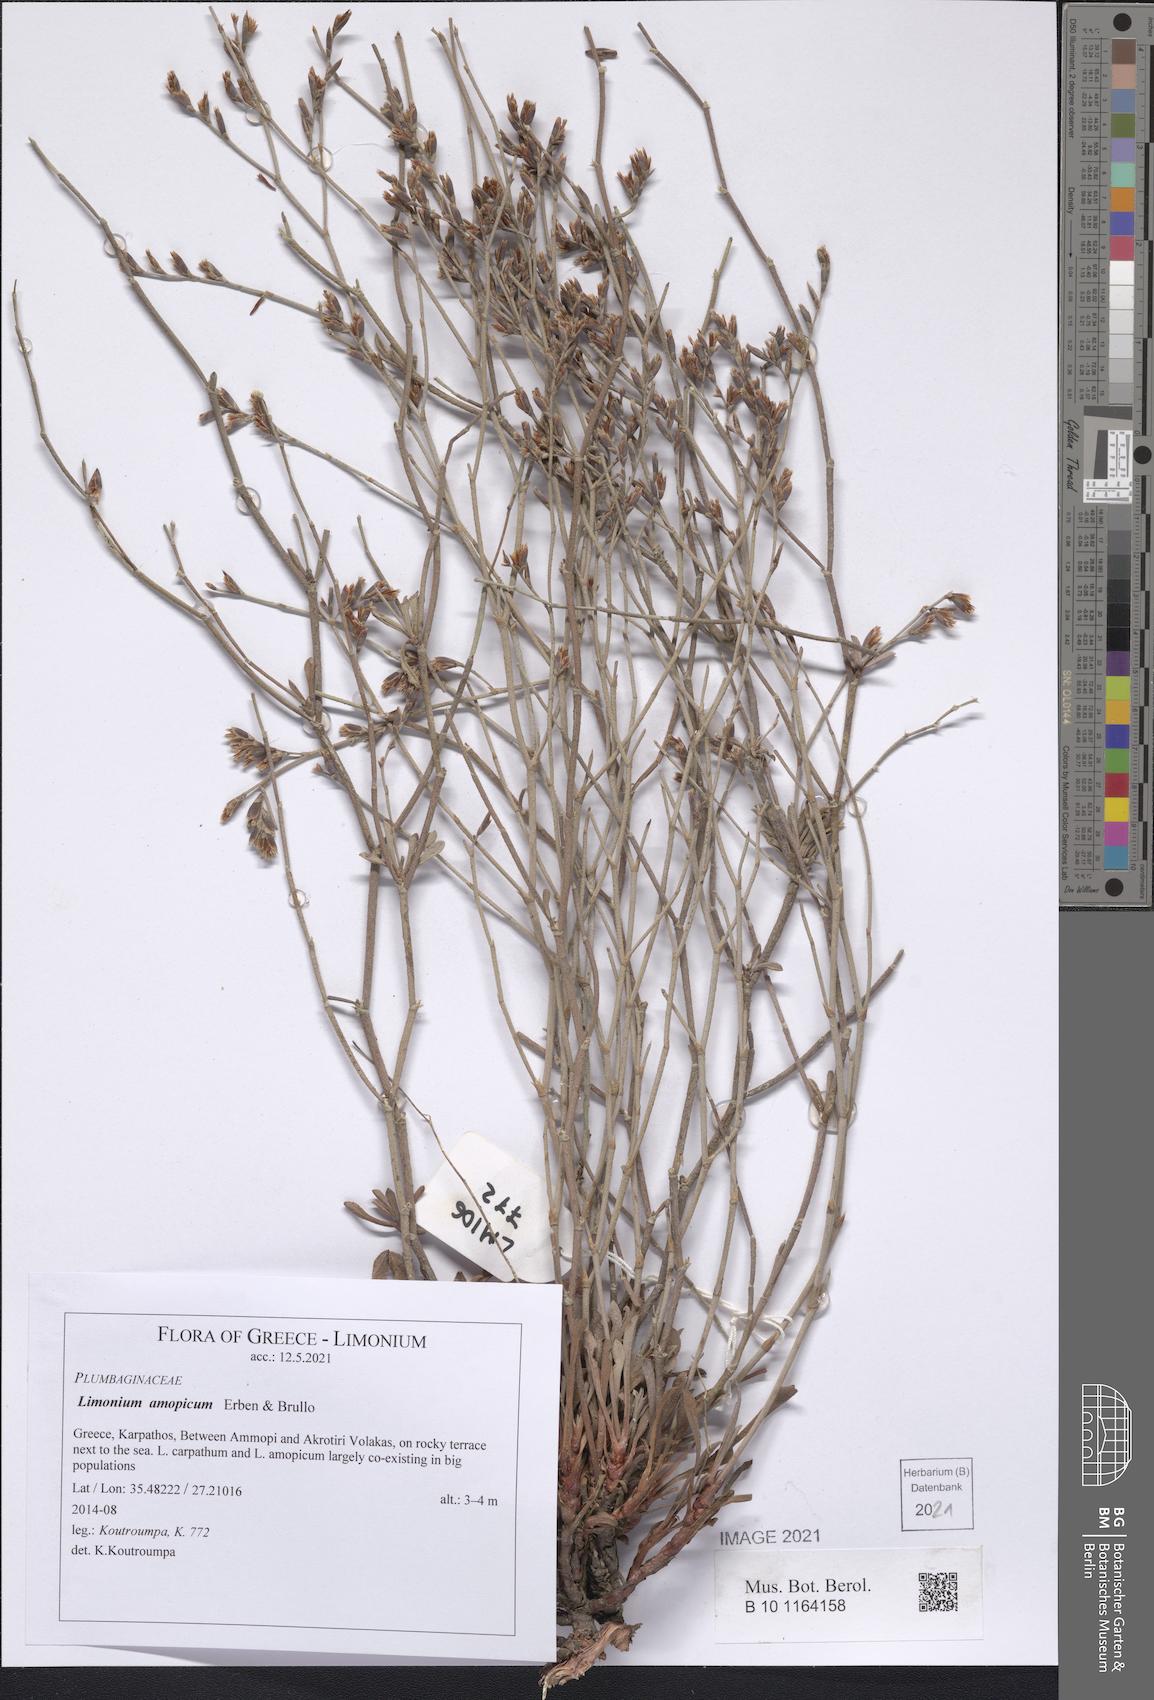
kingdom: Plantae
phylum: Tracheophyta
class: Magnoliopsida
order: Caryophyllales
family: Plumbaginaceae
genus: Limonium
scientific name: Limonium amopicum
